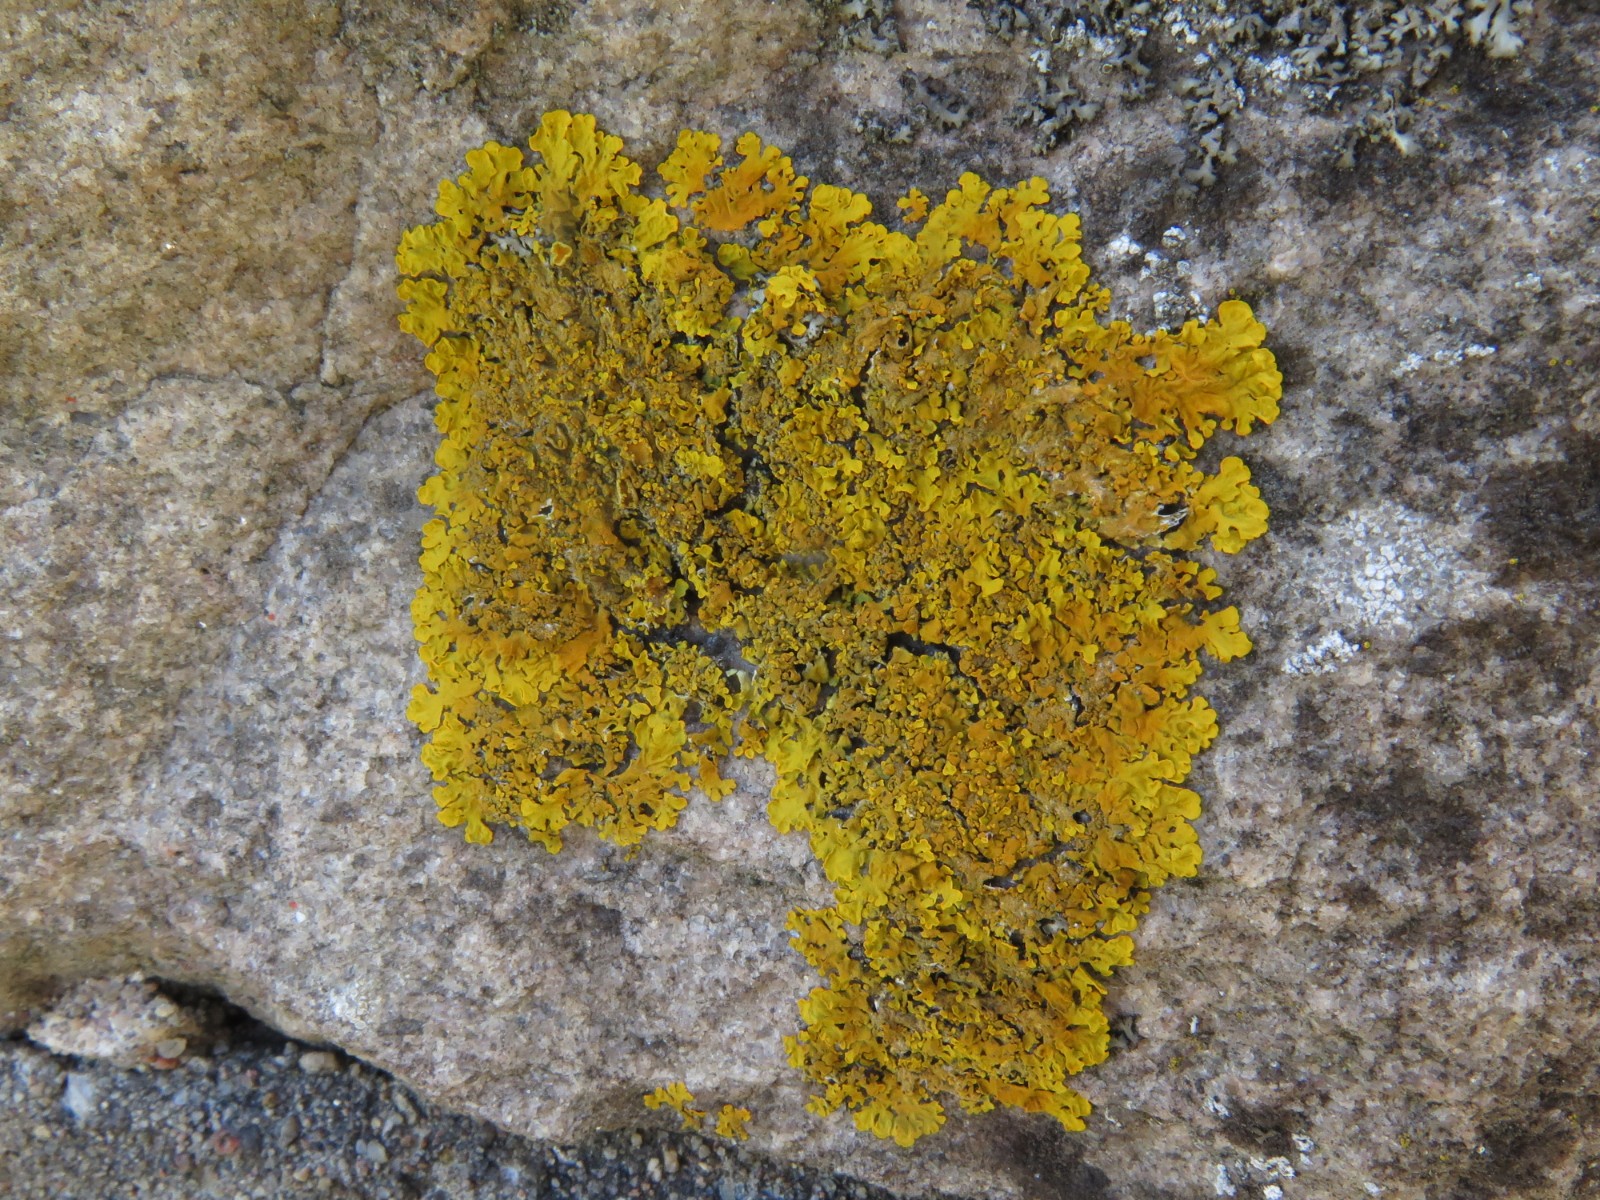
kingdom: Fungi
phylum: Ascomycota
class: Lecanoromycetes
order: Teloschistales
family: Teloschistaceae
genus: Xanthoria
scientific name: Xanthoria calcicola
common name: vortet væggelav
